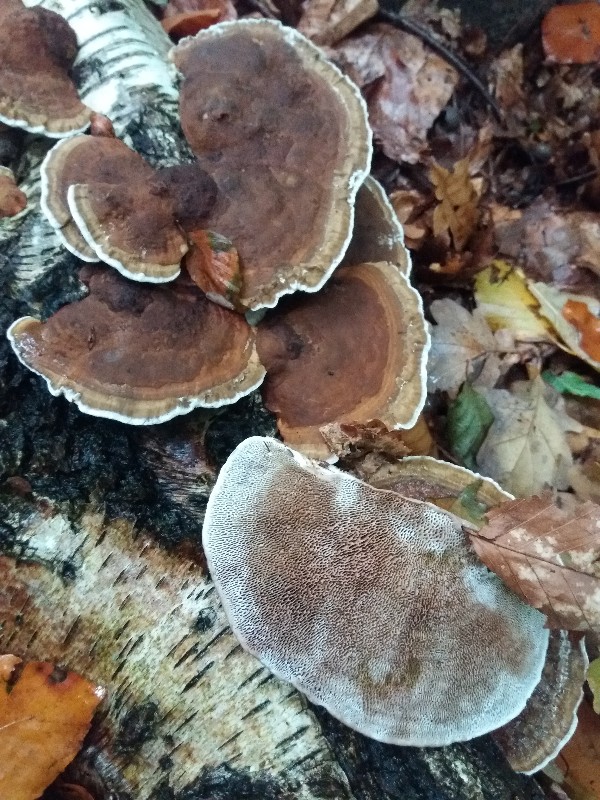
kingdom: Fungi
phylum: Basidiomycota
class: Agaricomycetes
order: Polyporales
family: Polyporaceae
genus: Daedaleopsis
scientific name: Daedaleopsis confragosa
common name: rødmende læderporesvamp
